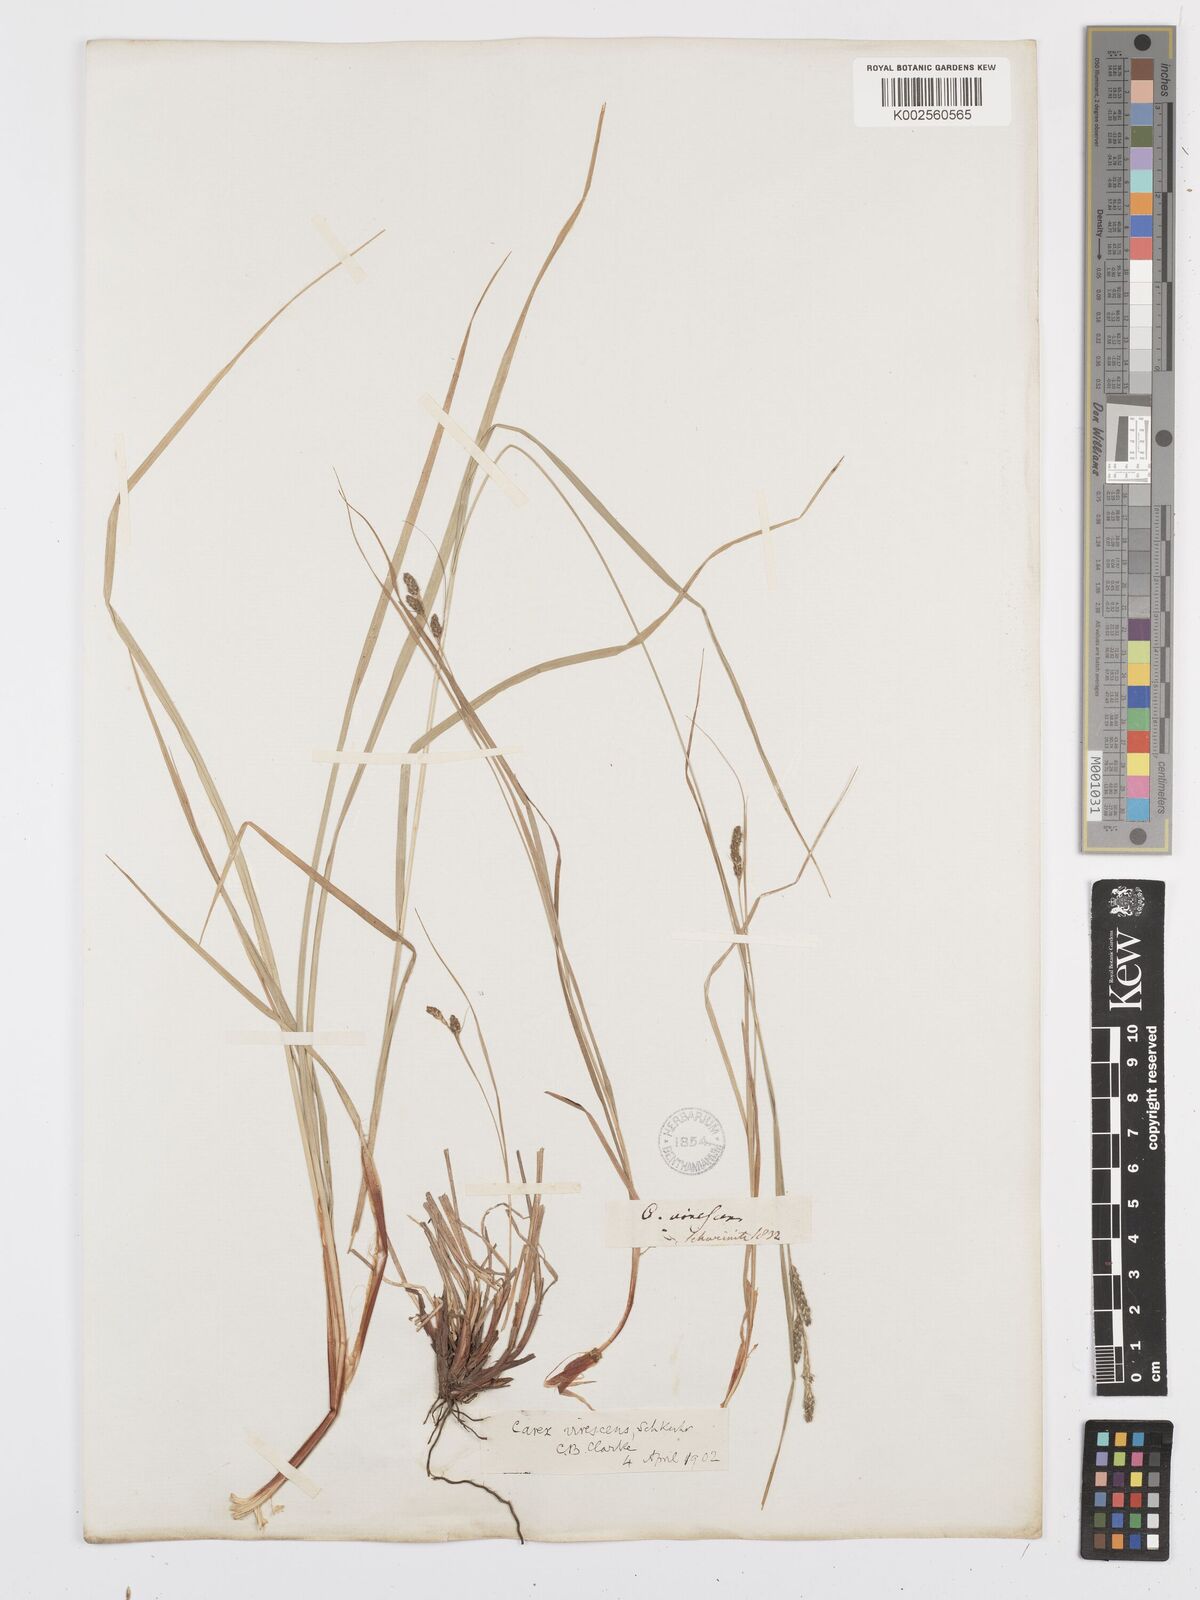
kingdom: Plantae
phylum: Tracheophyta
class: Liliopsida
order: Poales
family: Cyperaceae
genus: Carex
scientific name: Carex virescens
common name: Ribbed sedge
